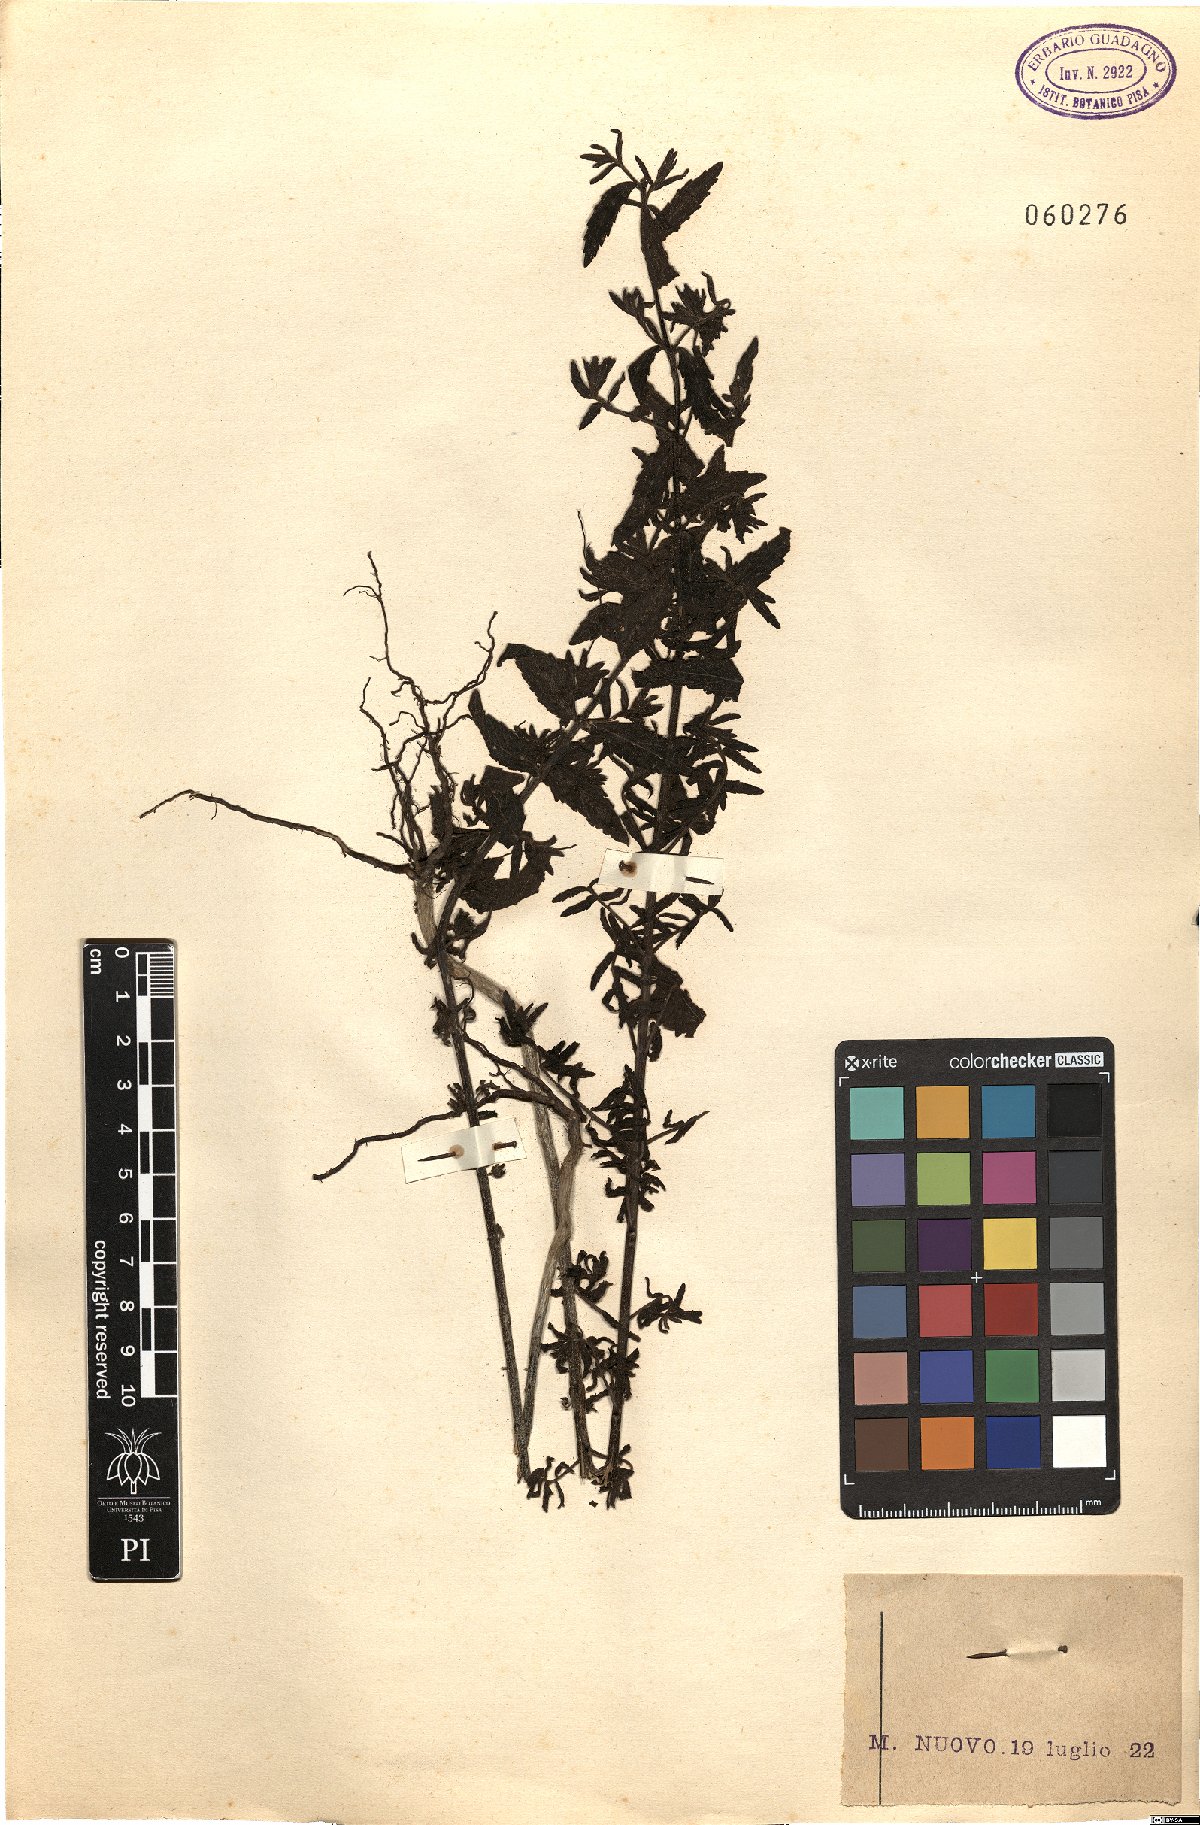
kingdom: Plantae
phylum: Tracheophyta
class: Magnoliopsida
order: Lamiales
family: Orobanchaceae
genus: Bellardia
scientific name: Bellardia
